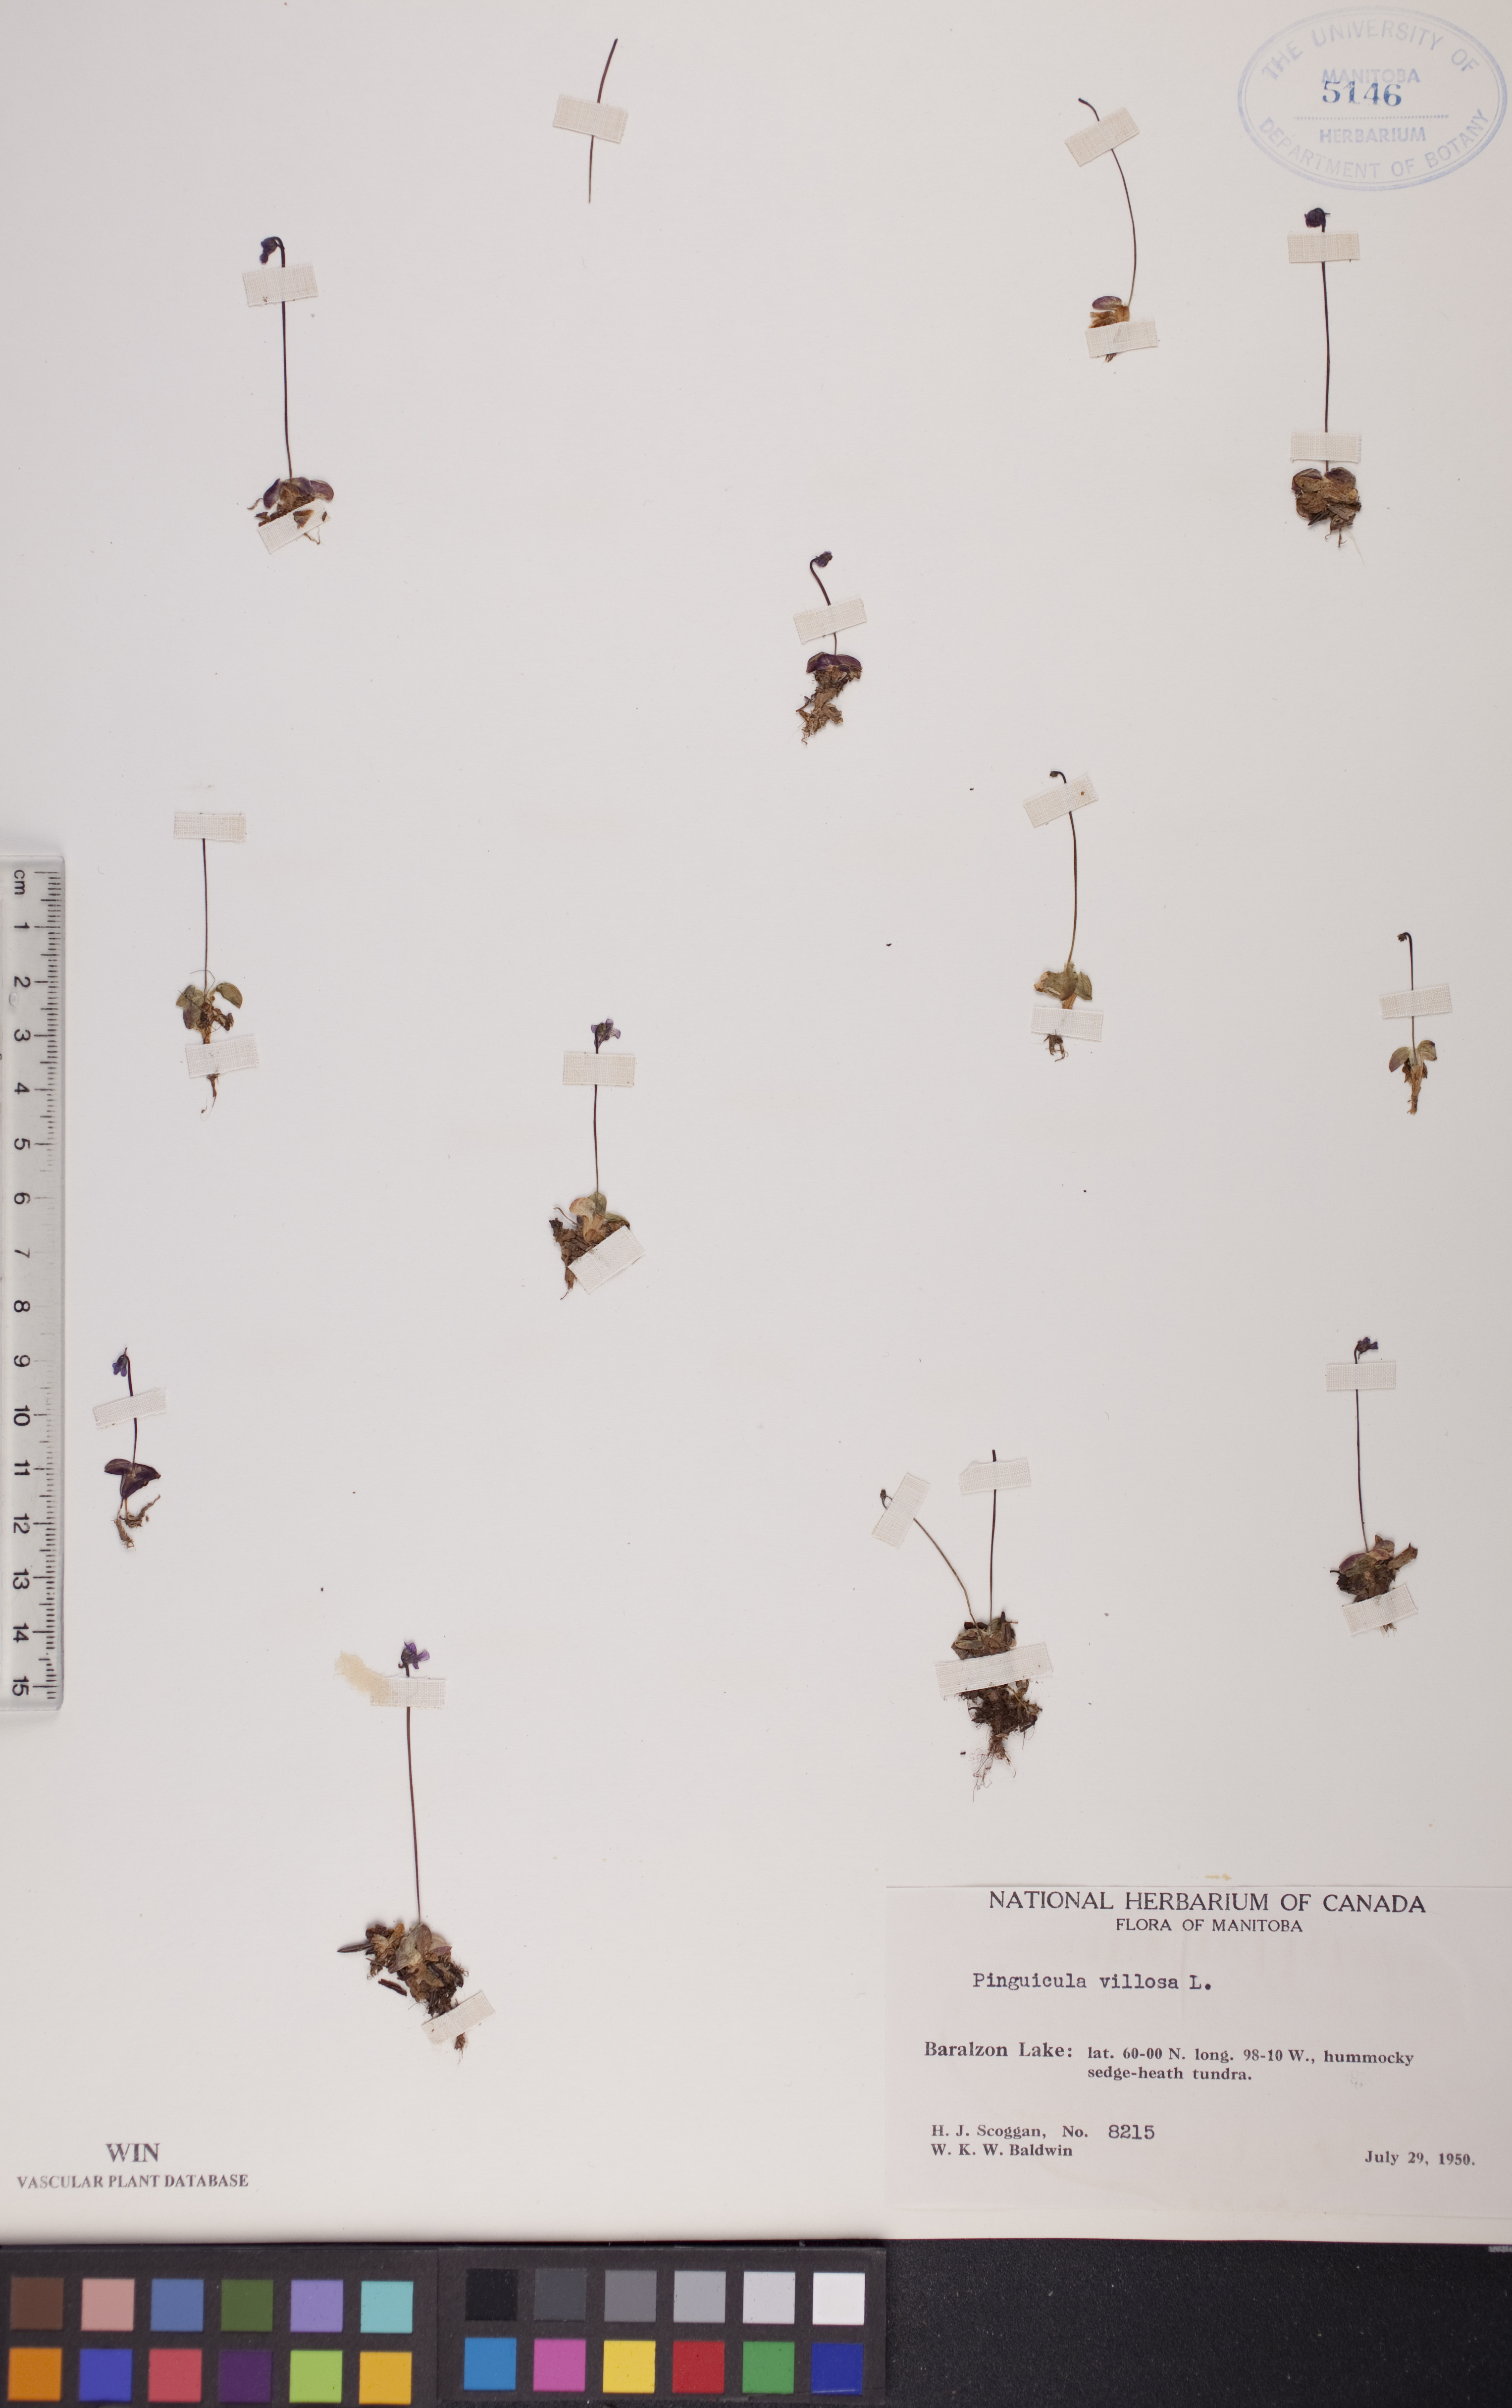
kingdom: Plantae
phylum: Tracheophyta
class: Magnoliopsida
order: Lamiales
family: Lentibulariaceae
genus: Pinguicula
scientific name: Pinguicula villosa
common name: Hairy butterwort
